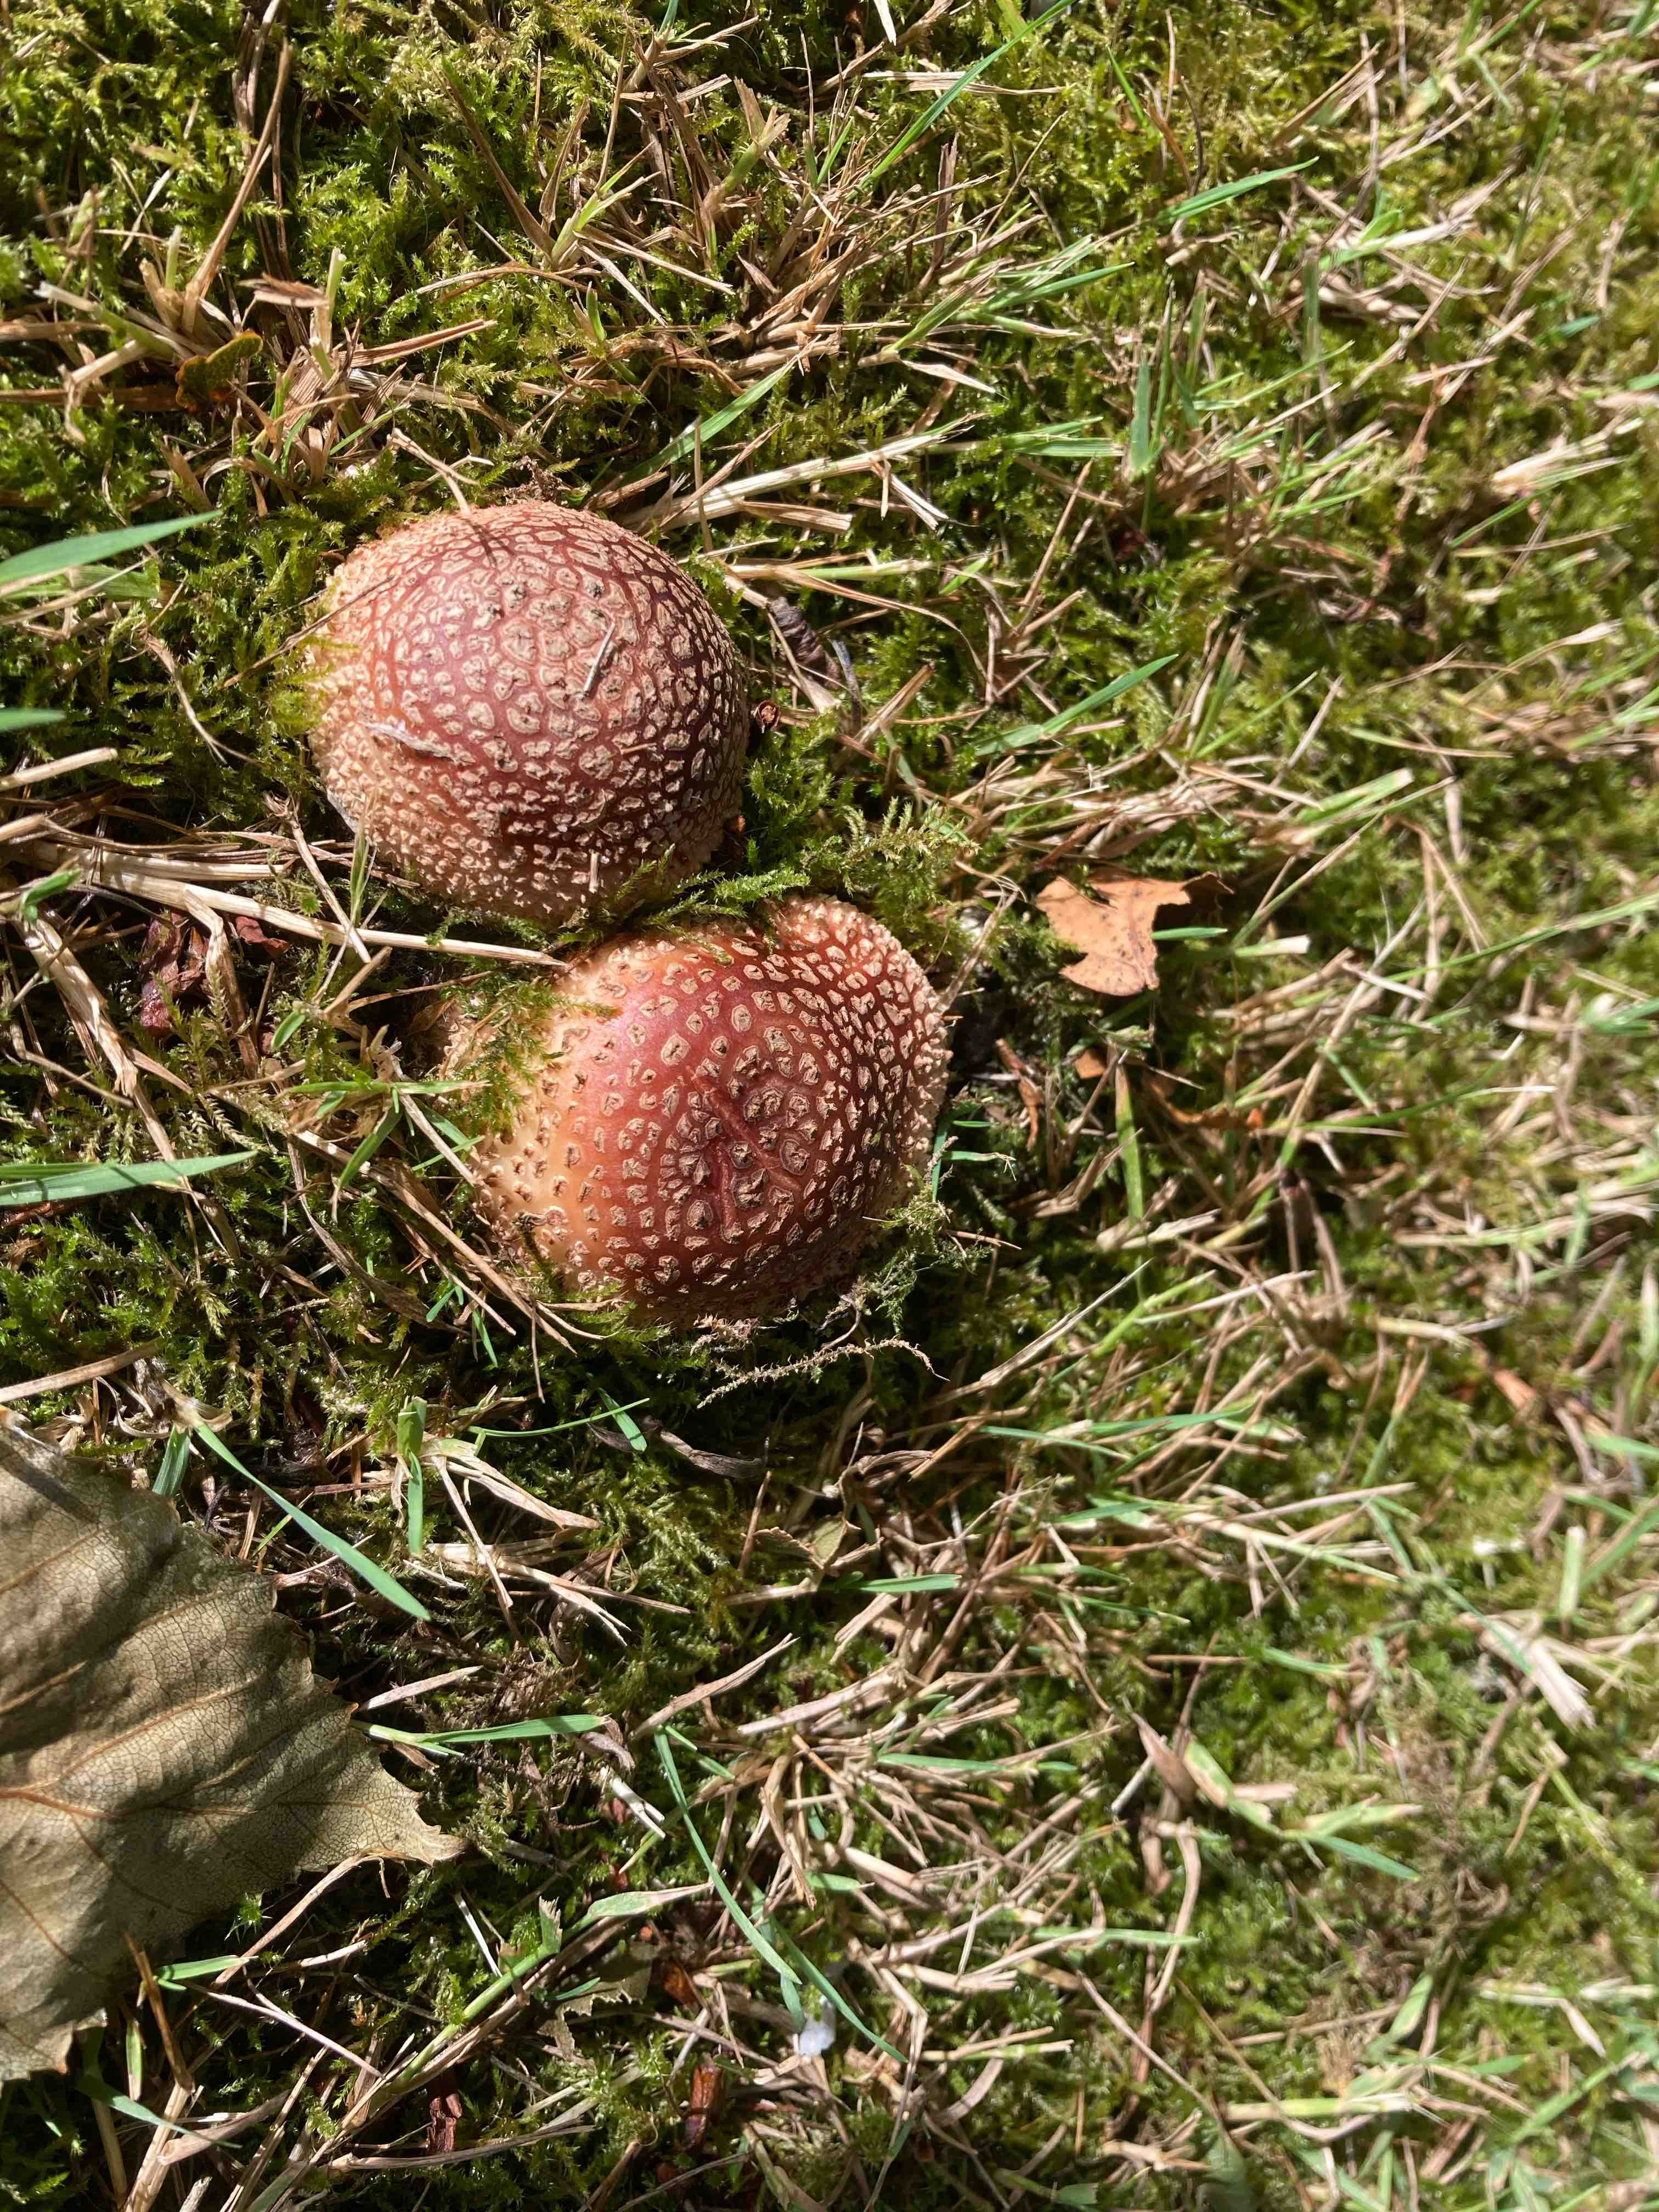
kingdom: Fungi
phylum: Basidiomycota
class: Agaricomycetes
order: Agaricales
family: Amanitaceae
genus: Amanita
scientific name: Amanita rubescens
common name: rødmende fluesvamp
